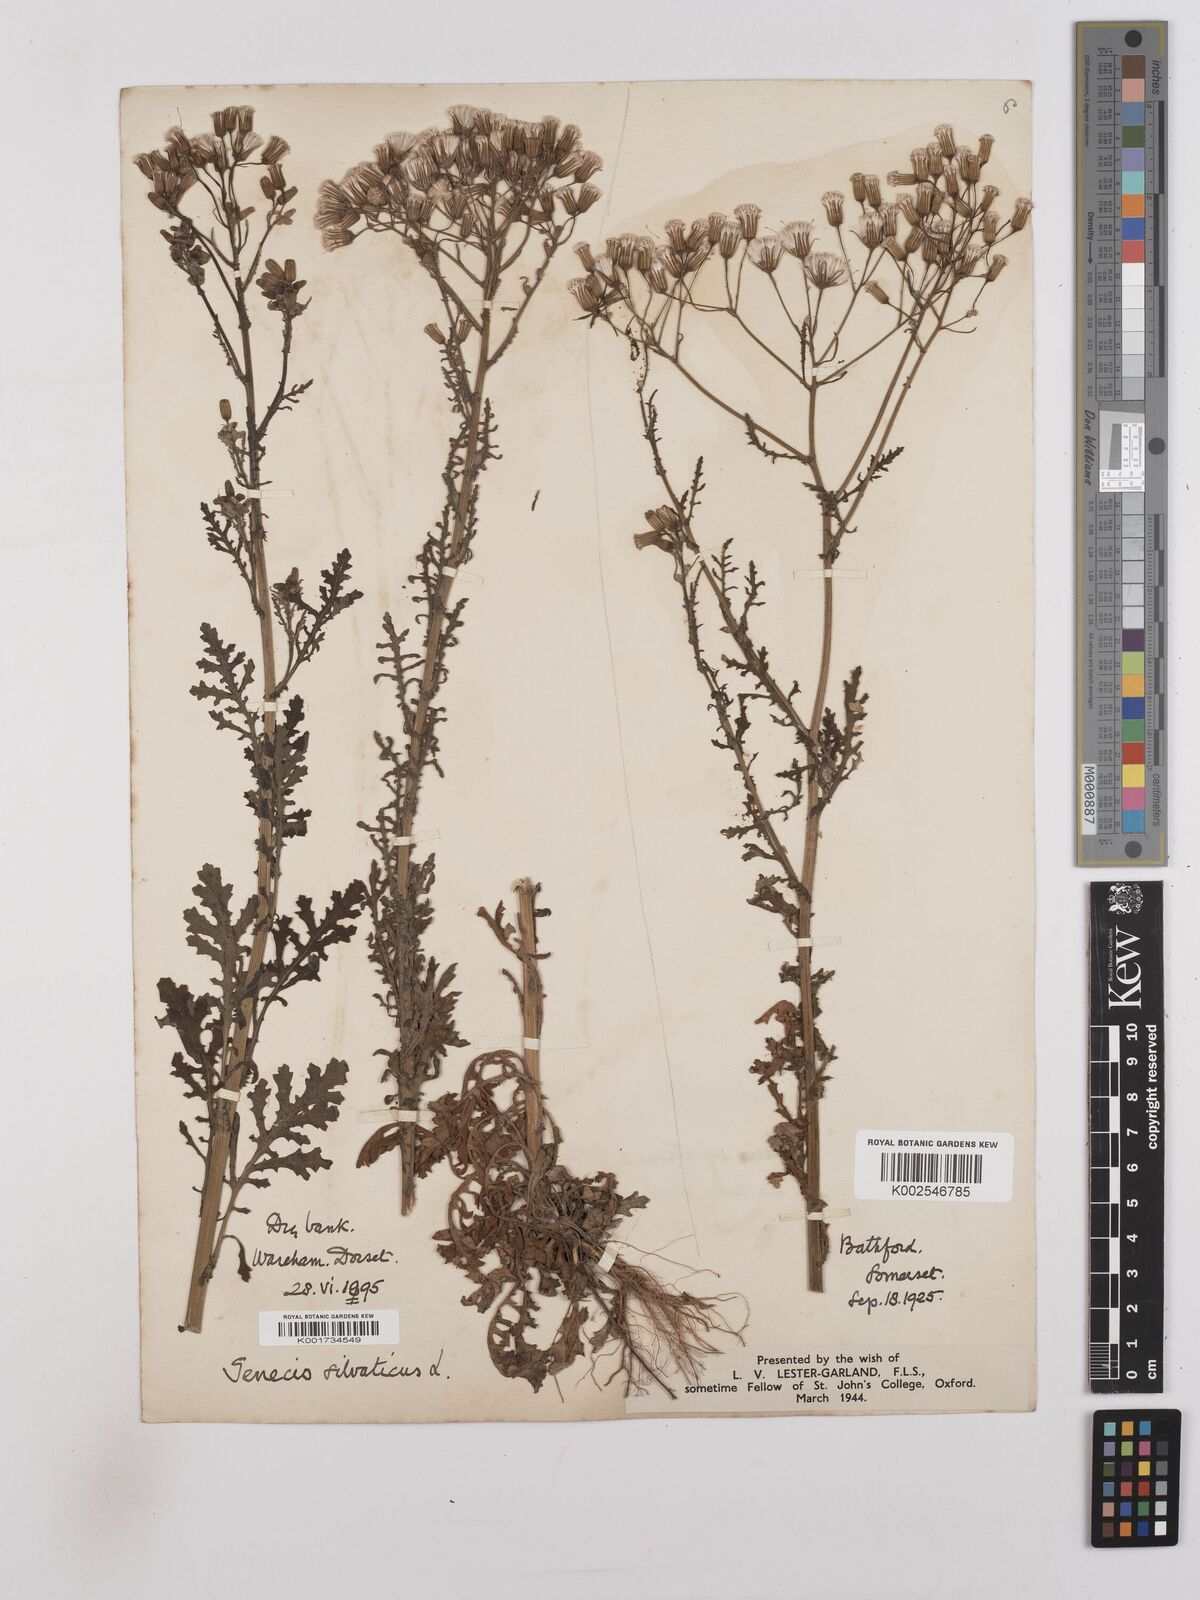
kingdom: Plantae
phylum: Tracheophyta
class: Magnoliopsida
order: Asterales
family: Asteraceae
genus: Senecio
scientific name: Senecio sylvaticus
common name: Woodland ragwort
